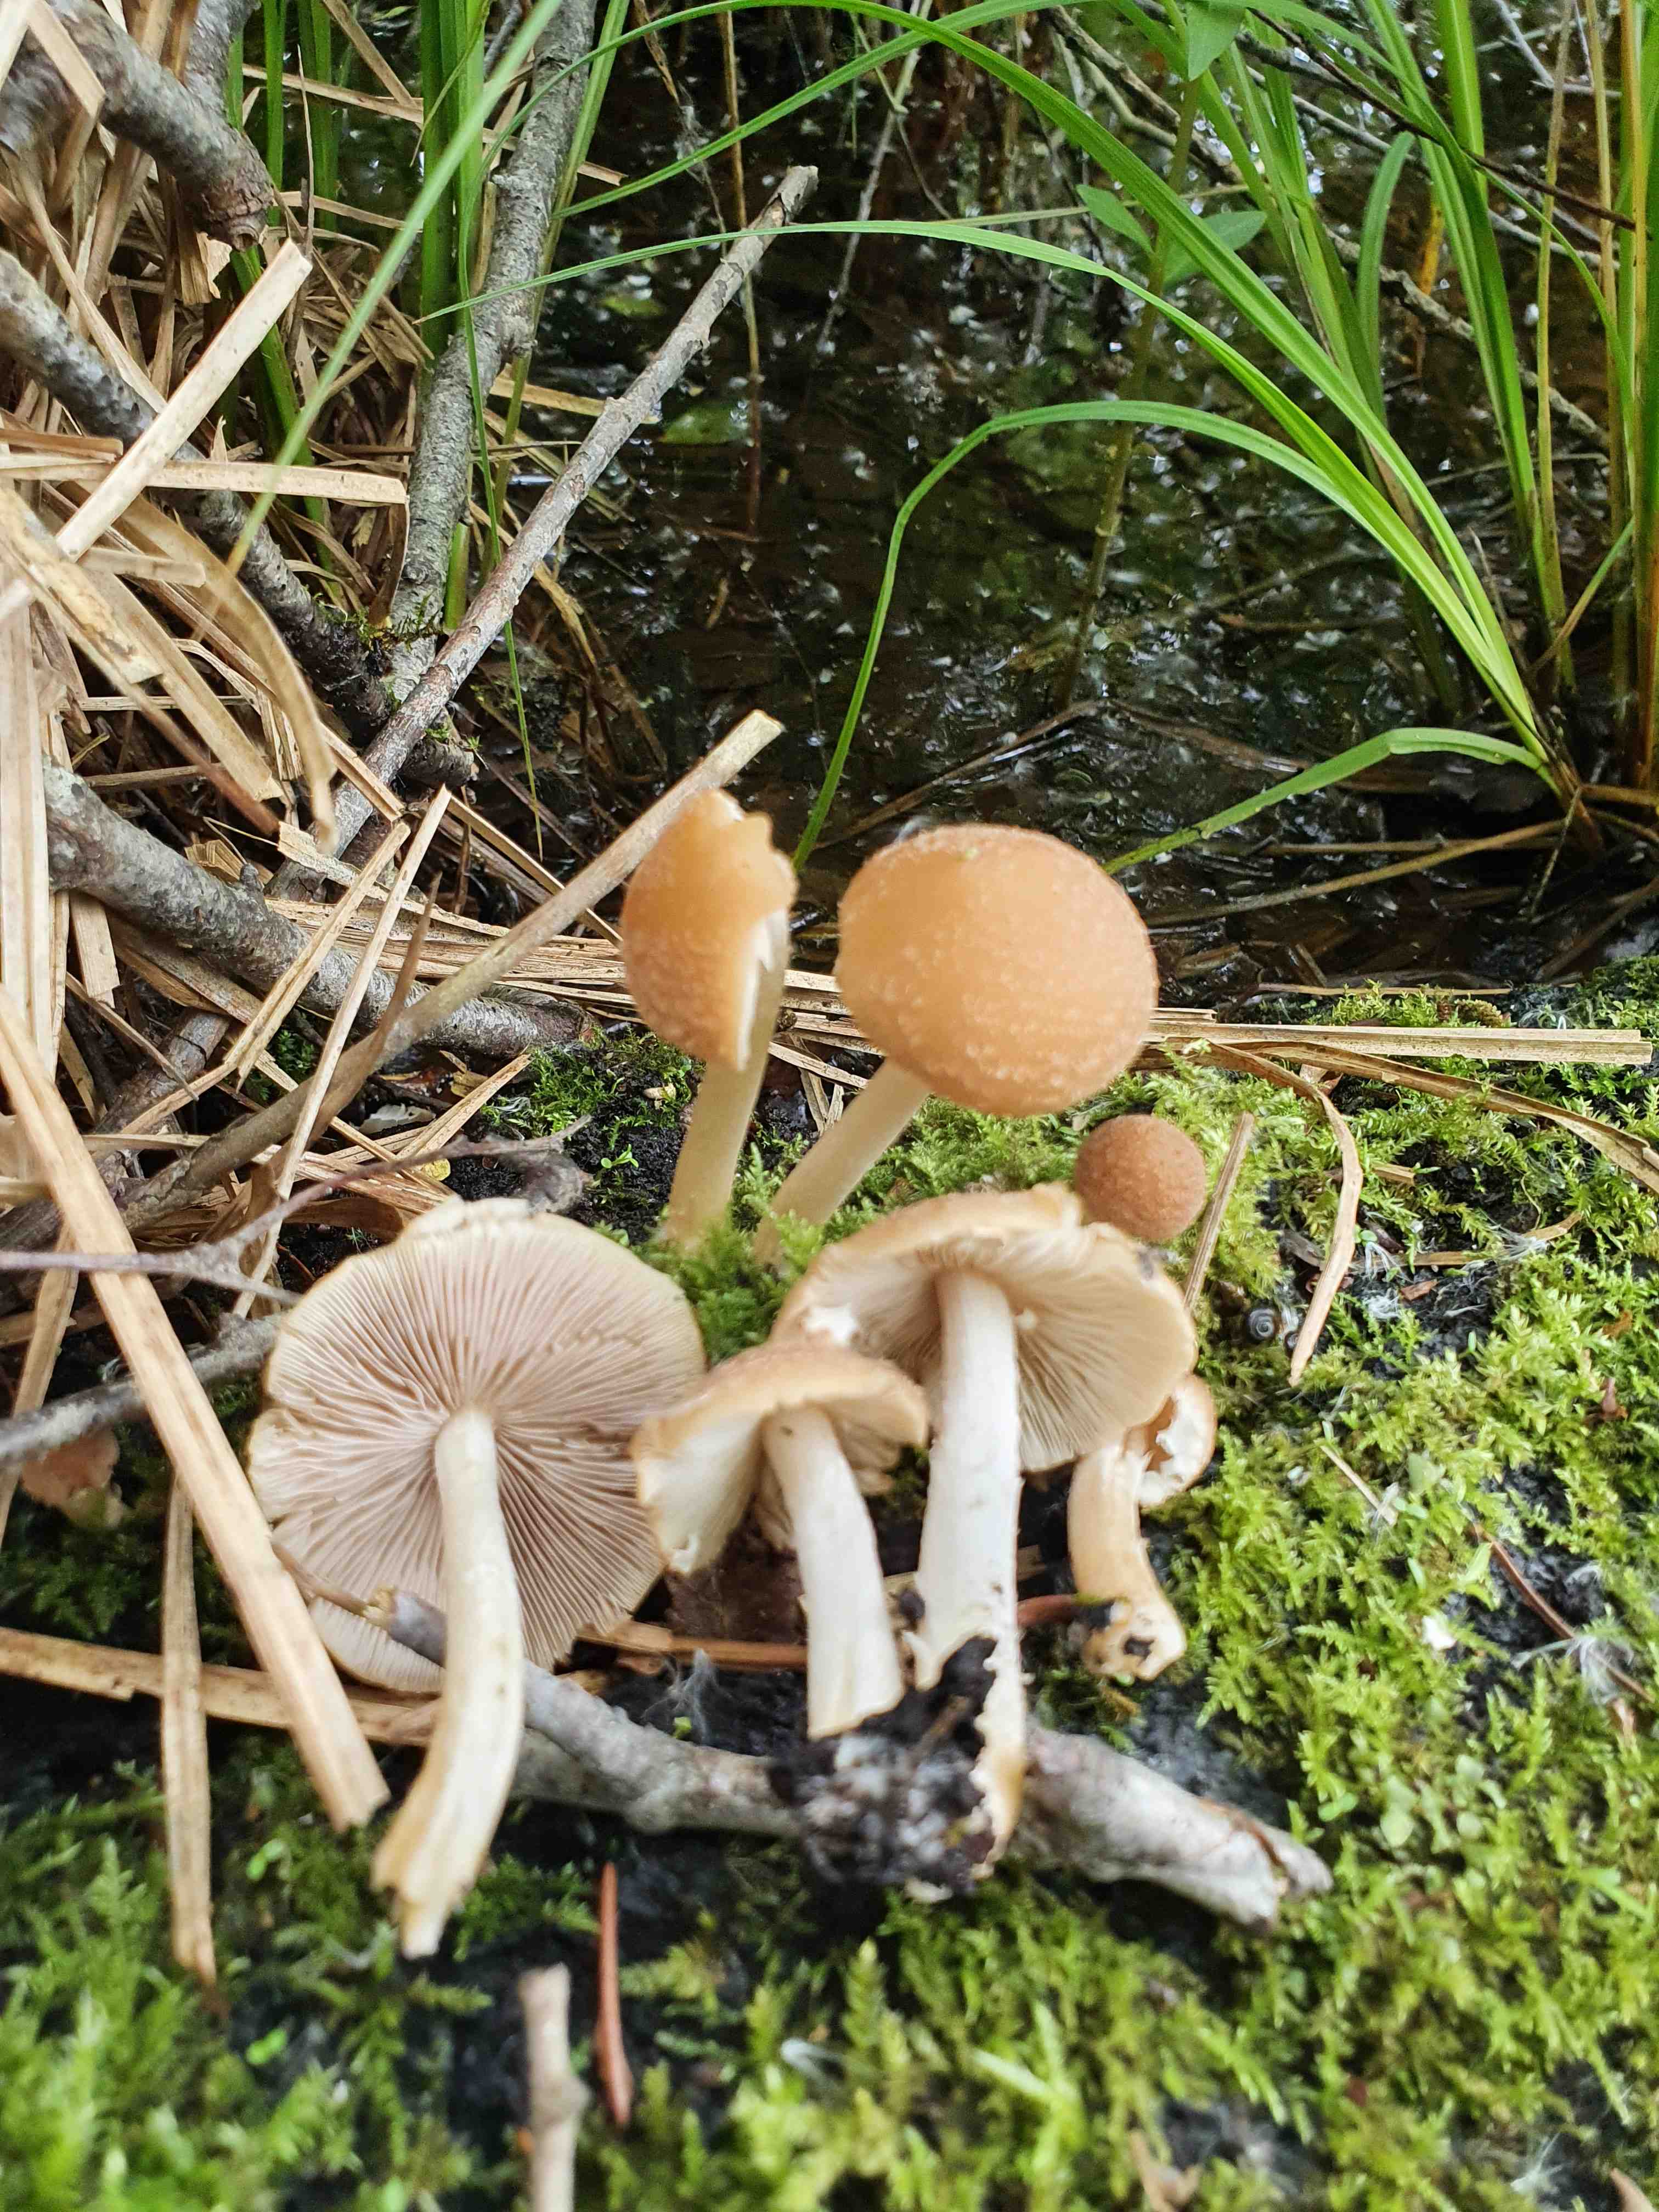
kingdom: Fungi
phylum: Basidiomycota
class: Agaricomycetes
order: Agaricales
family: Psathyrellaceae
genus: Candolleomyces
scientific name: Candolleomyces candolleanus
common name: Candolles mørkhat
